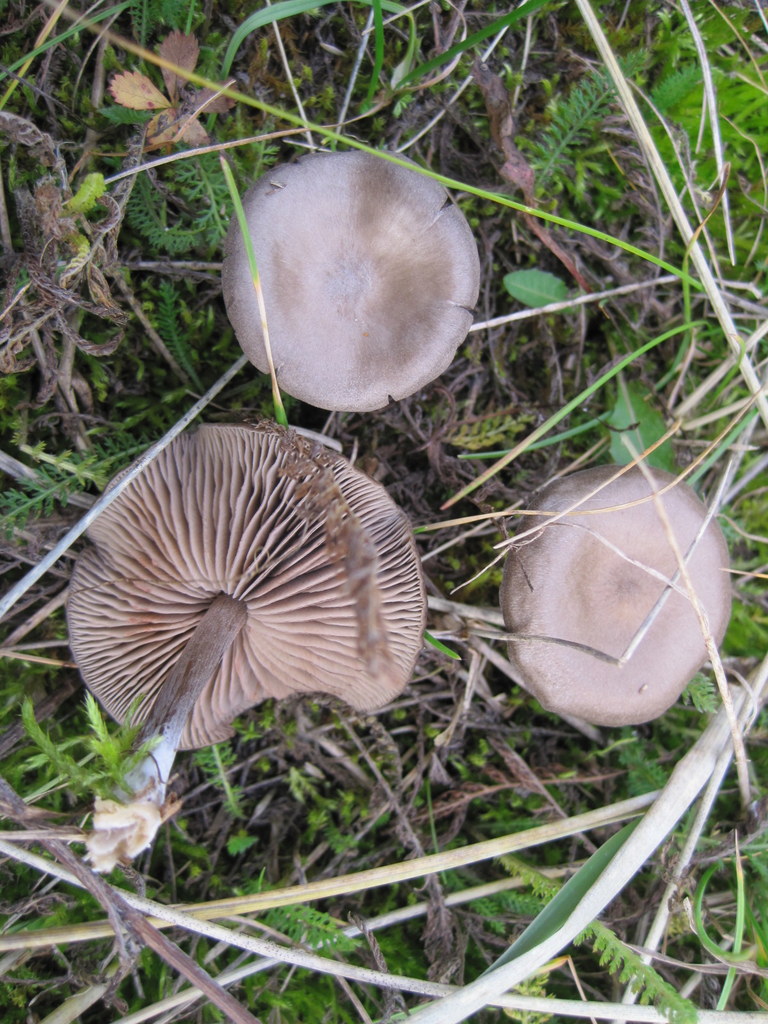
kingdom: Fungi
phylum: Basidiomycota
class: Agaricomycetes
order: Agaricales
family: Entolomataceae
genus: Entoloma
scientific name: Entoloma sericeum
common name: silkeglinsende rødblad
